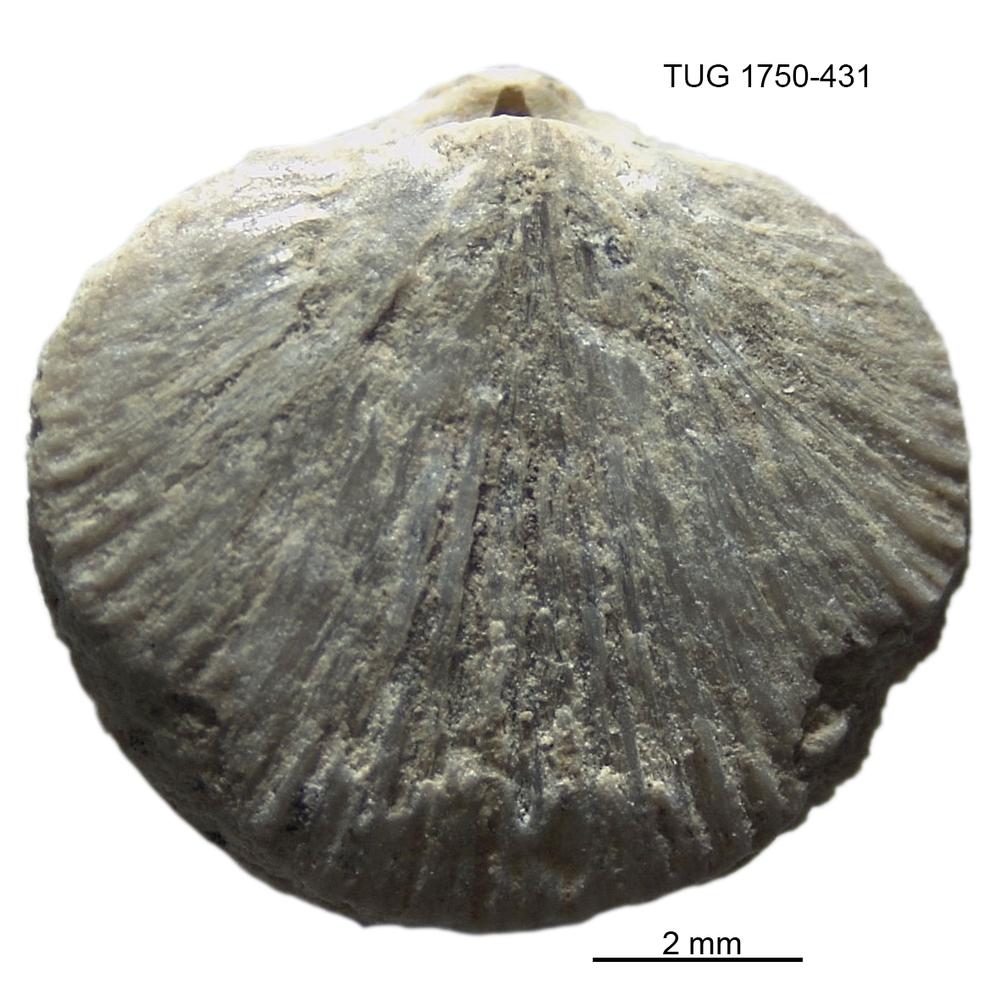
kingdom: Animalia
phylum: Brachiopoda
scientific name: Brachiopoda
